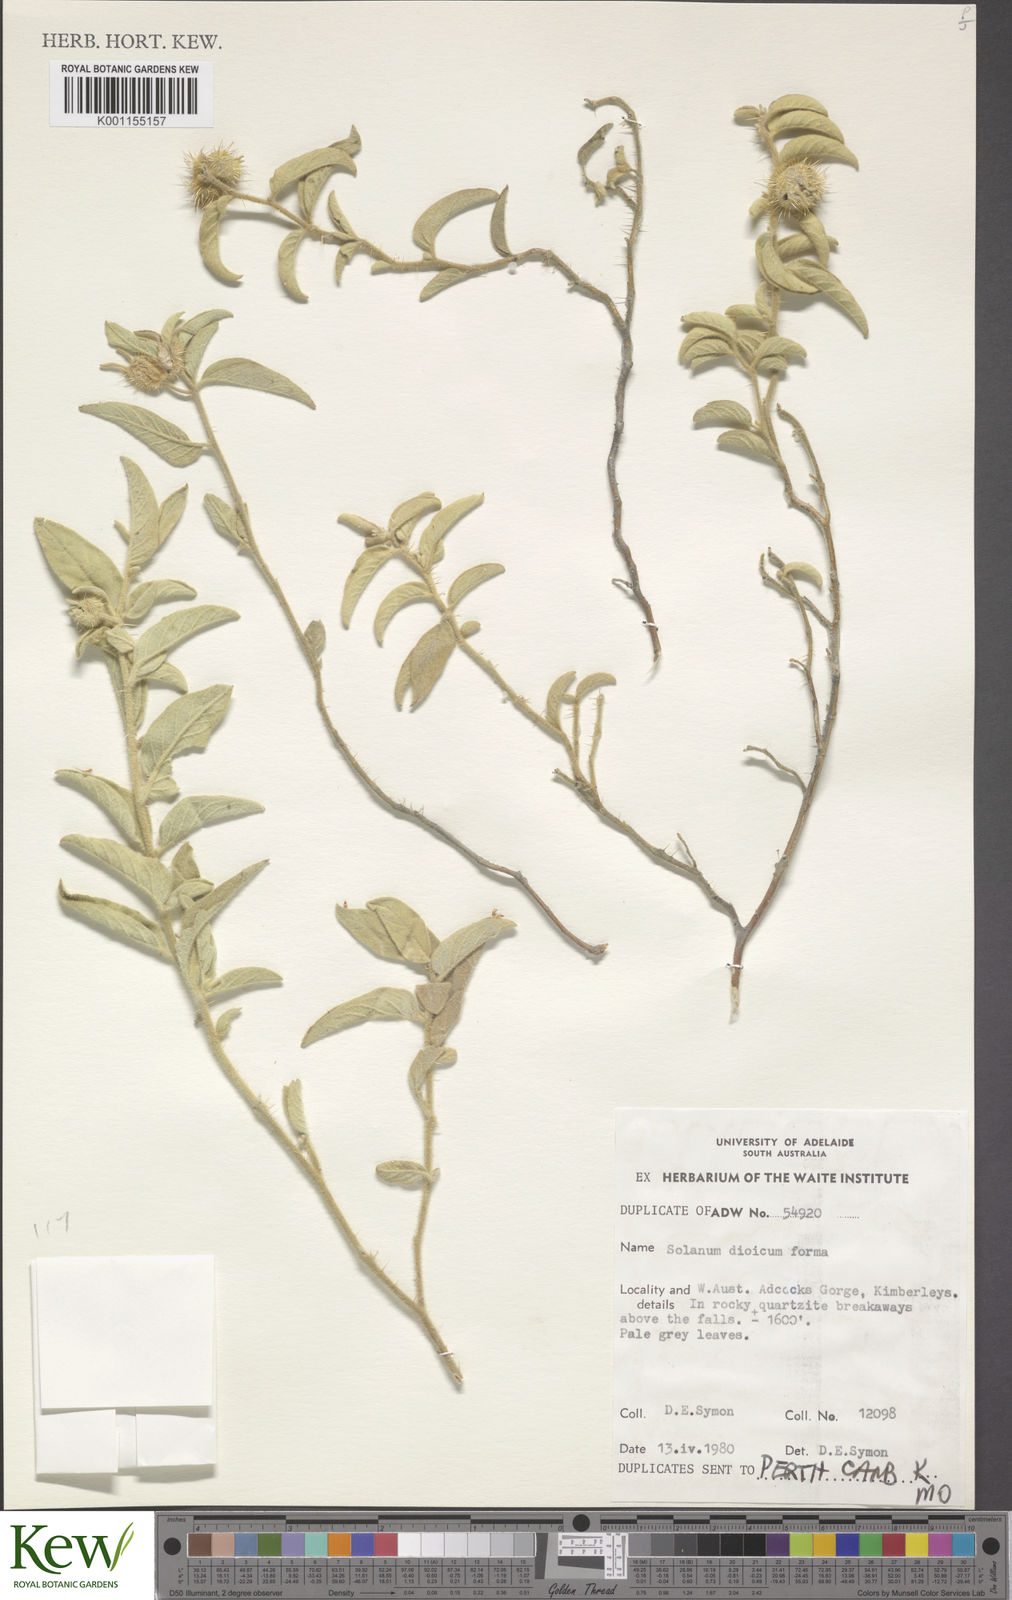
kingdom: Plantae
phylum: Tracheophyta
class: Magnoliopsida
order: Solanales
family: Solanaceae
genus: Solanum
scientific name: Solanum dioicum
